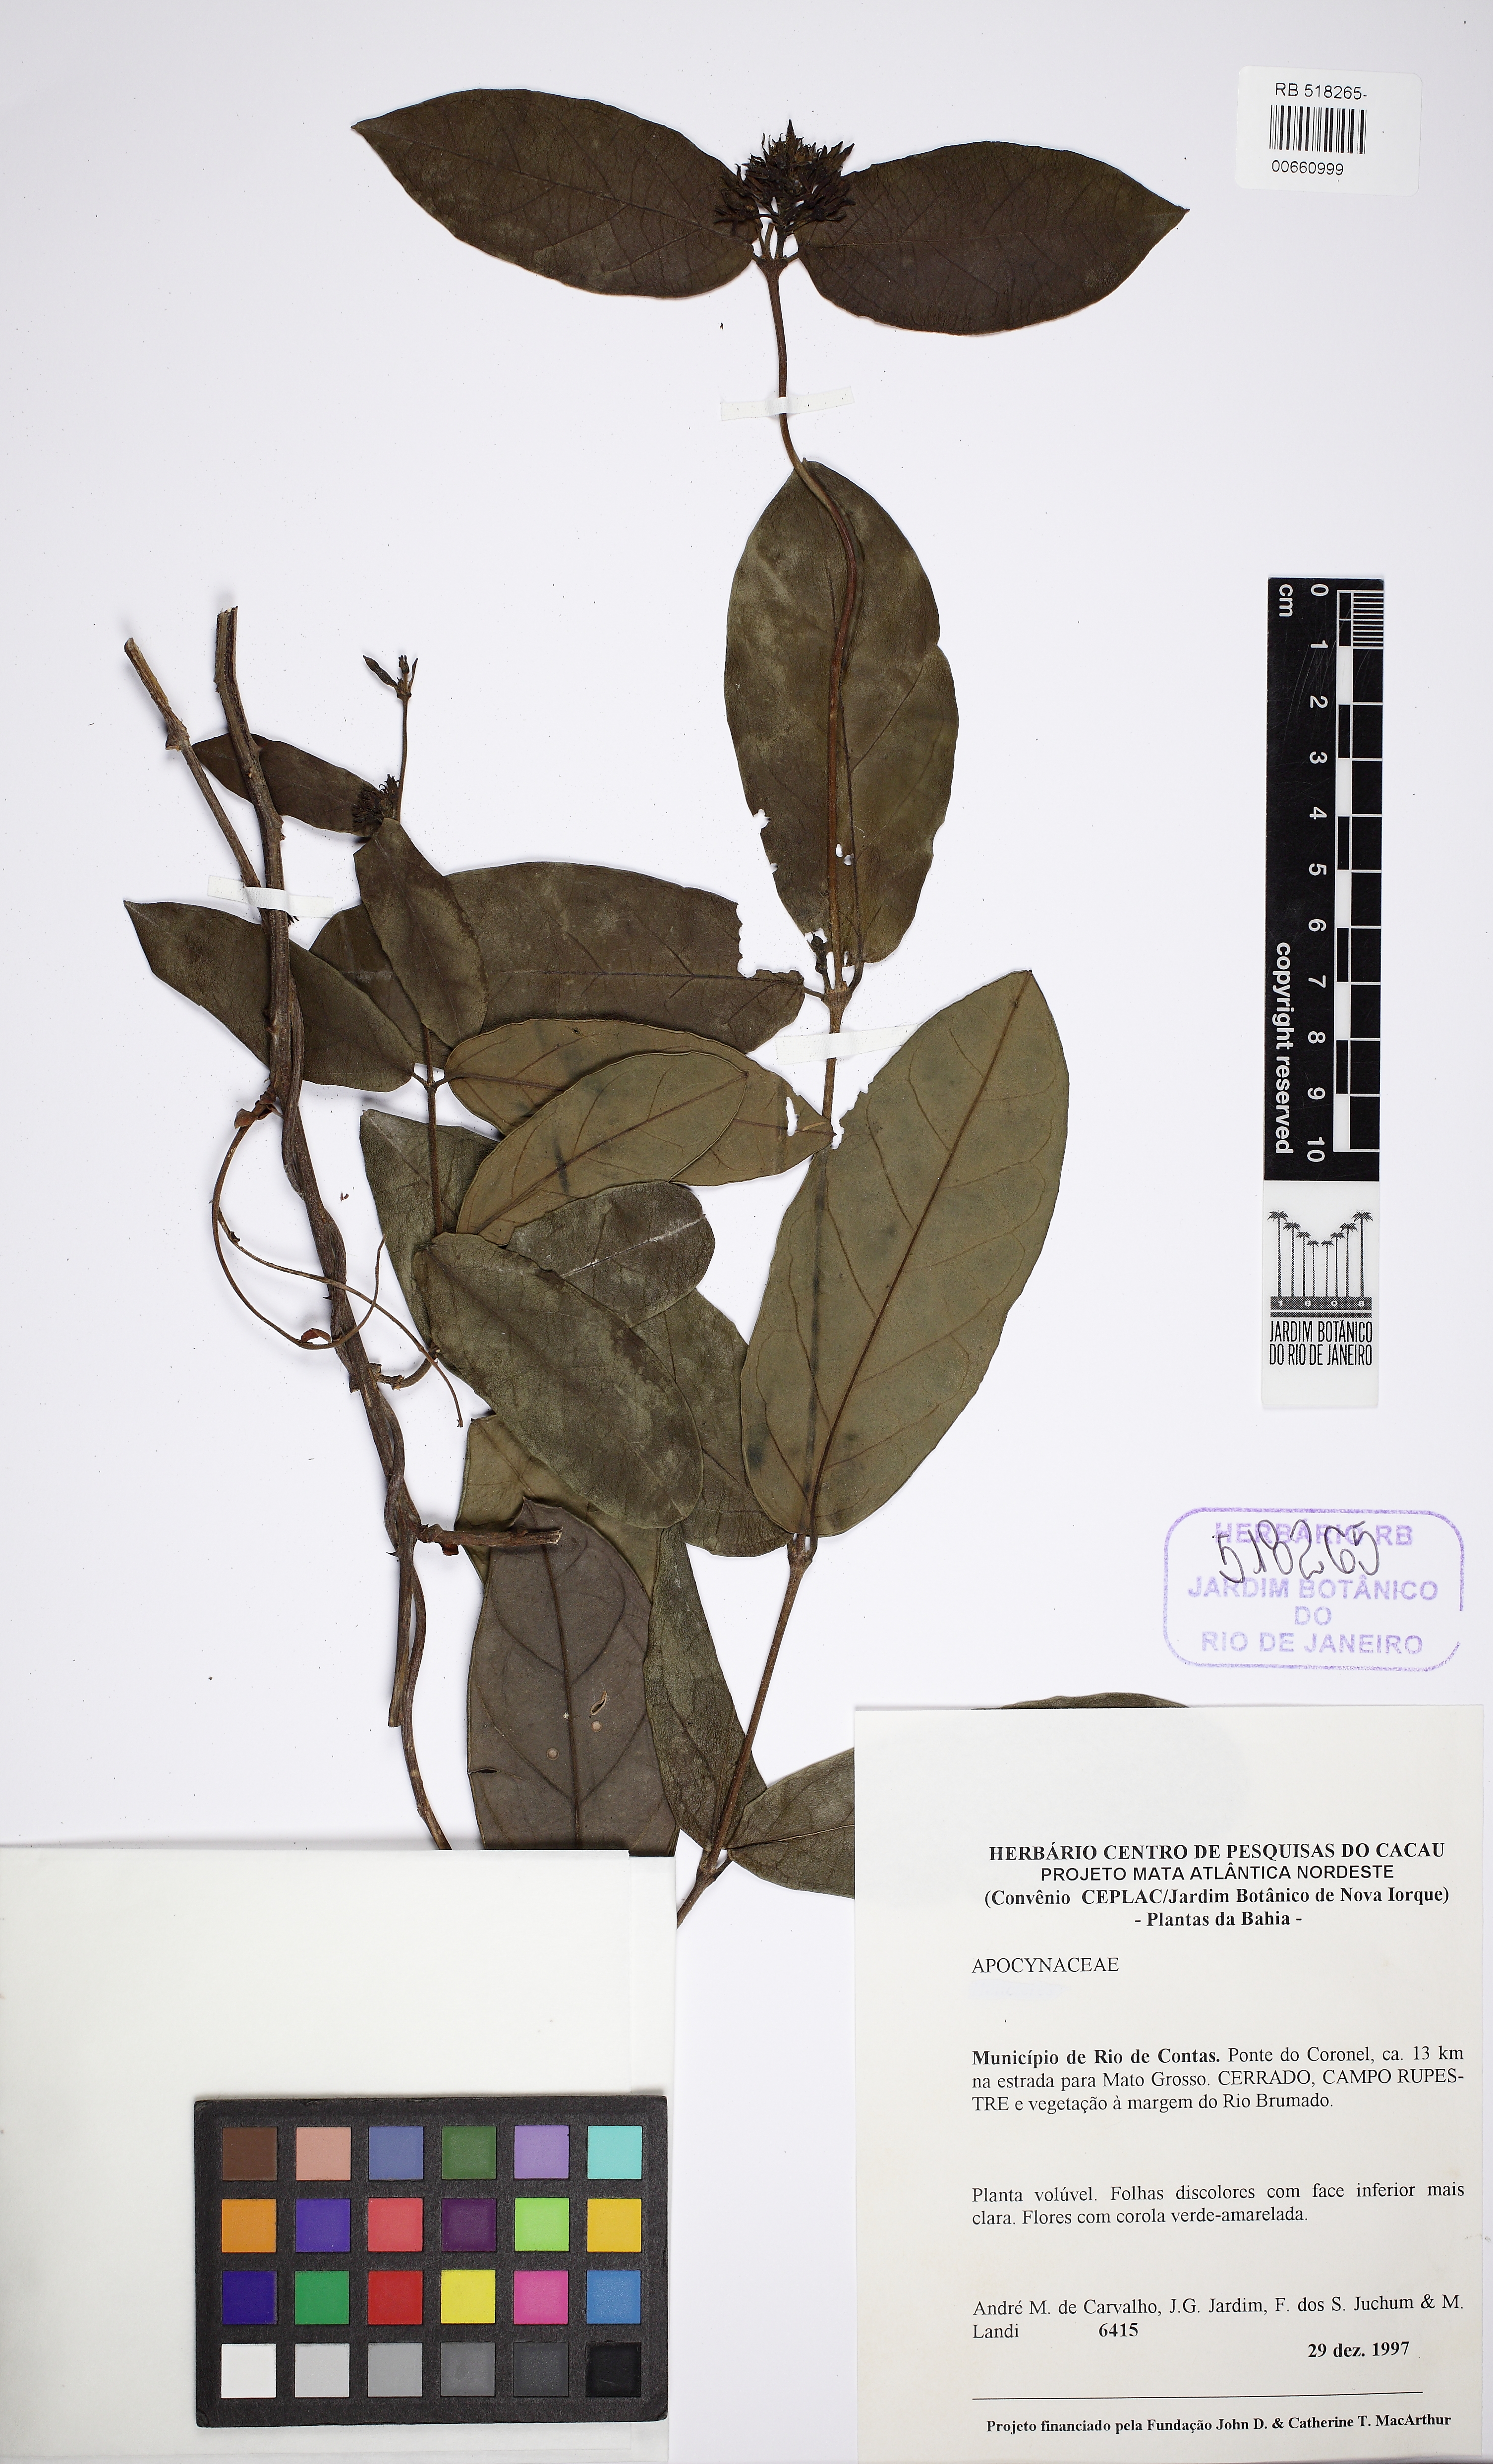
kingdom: Plantae
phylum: Tracheophyta
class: Magnoliopsida
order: Gentianales
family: Apocynaceae
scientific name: Apocynaceae
